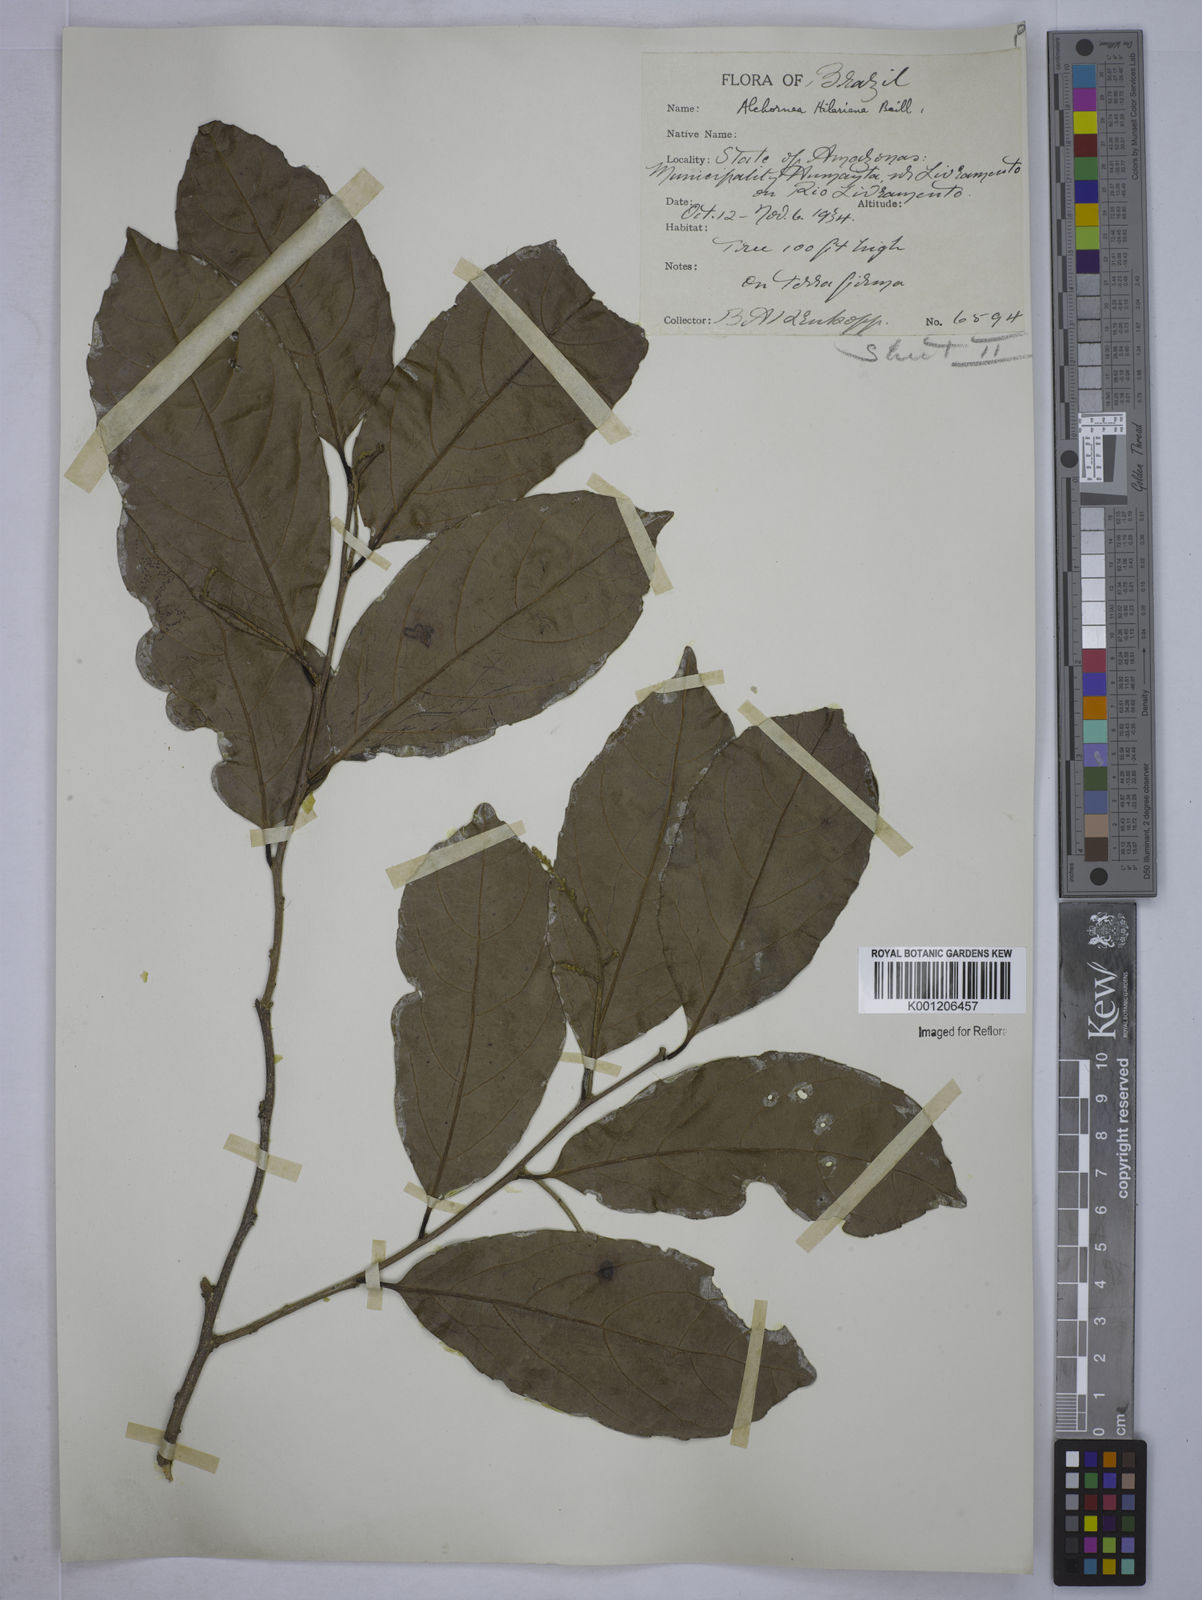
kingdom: Plantae
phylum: Tracheophyta
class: Magnoliopsida
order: Malpighiales
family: Euphorbiaceae
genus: Conceveiba
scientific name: Conceveiba praealta
